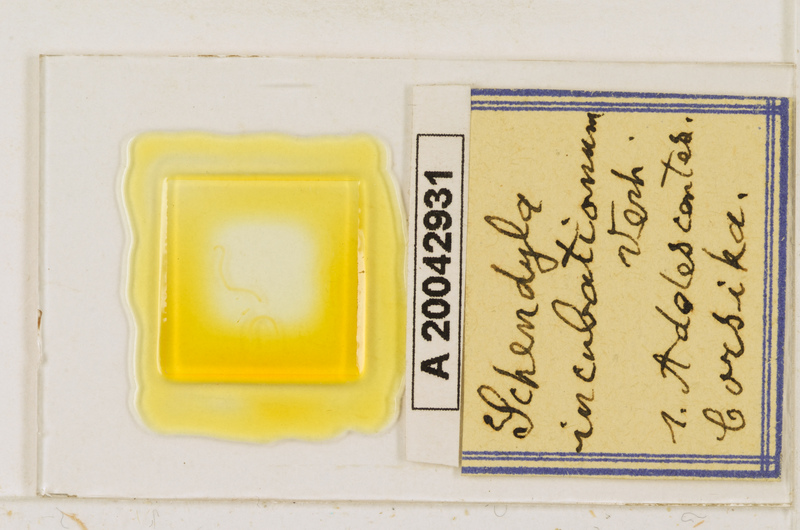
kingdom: Animalia
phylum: Arthropoda
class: Chilopoda
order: Geophilomorpha
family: Schendylidae
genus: Schendyla
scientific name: Schendyla incubationum
